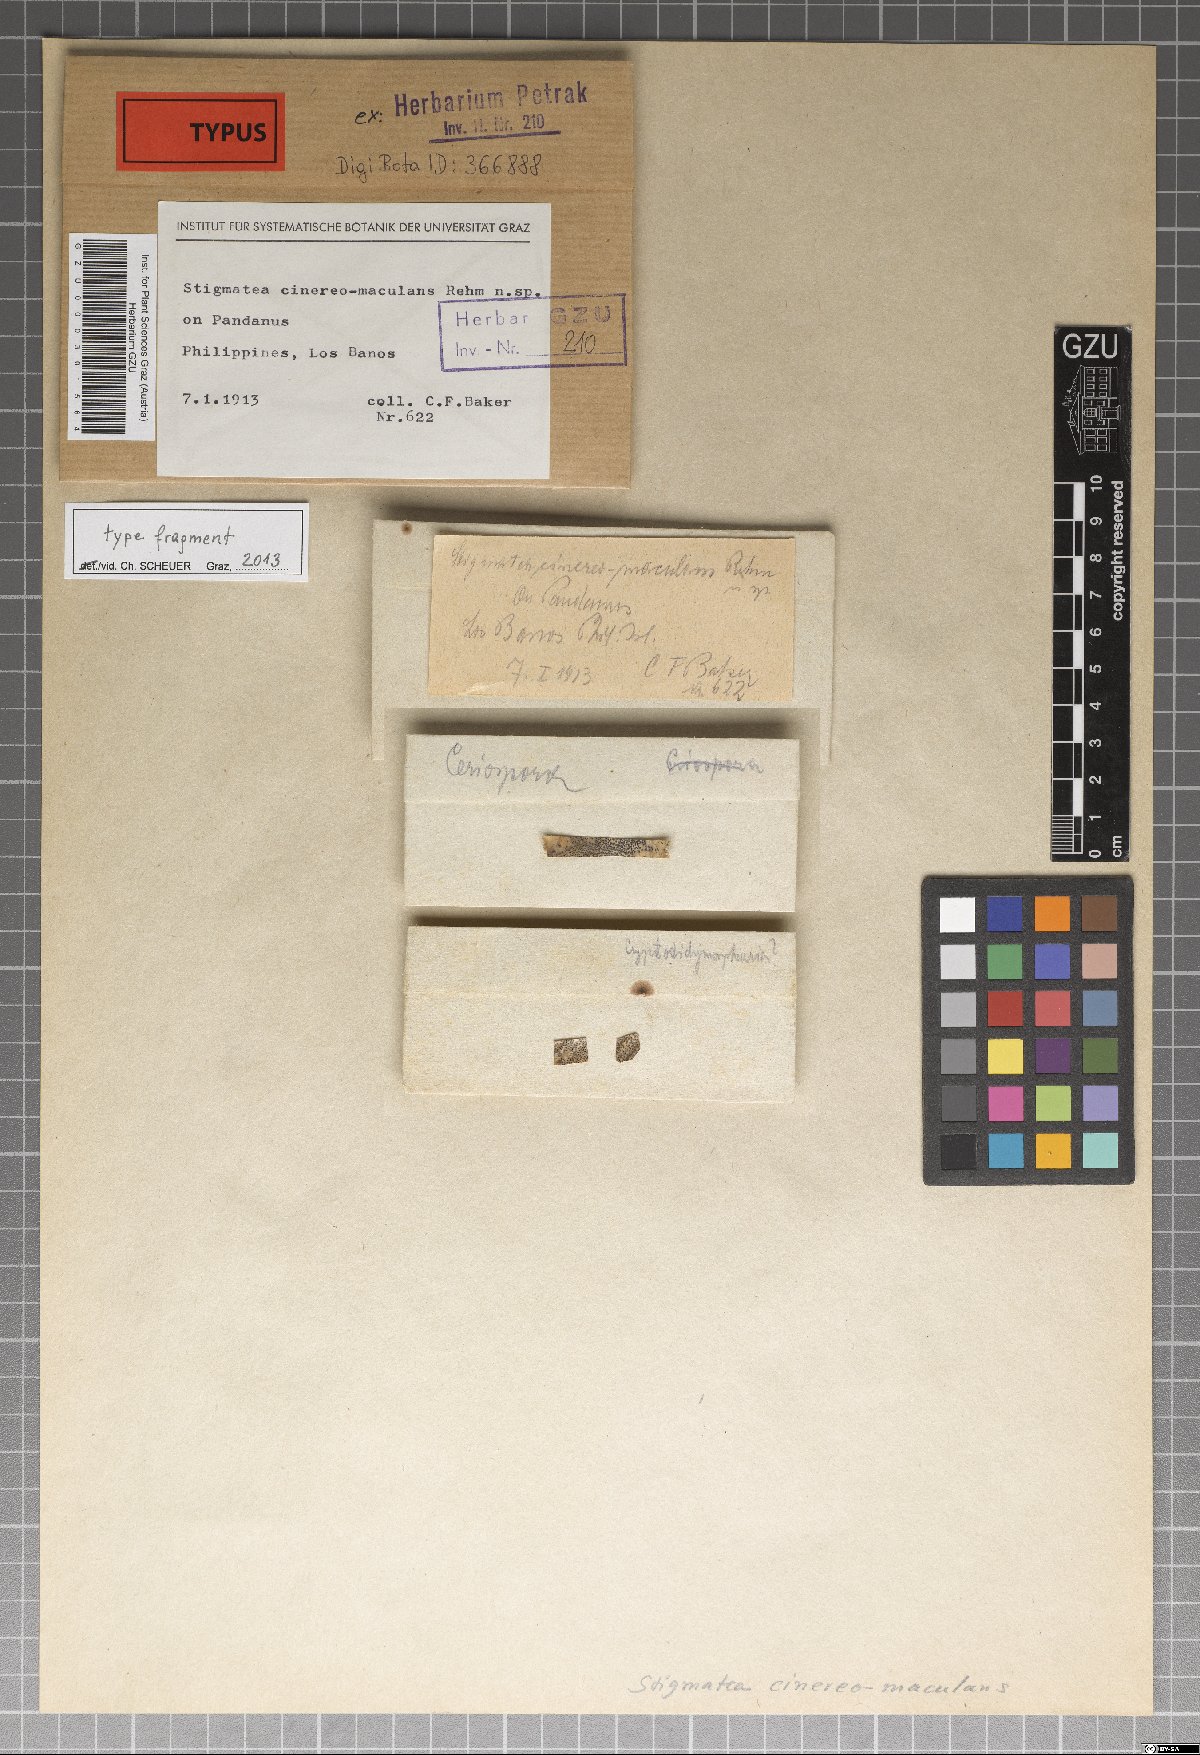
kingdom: Fungi
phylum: Ascomycota
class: Dothideomycetes
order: Venturiales
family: Venturiaceae
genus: Stigmatea
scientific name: Stigmatea cinereomaculans
